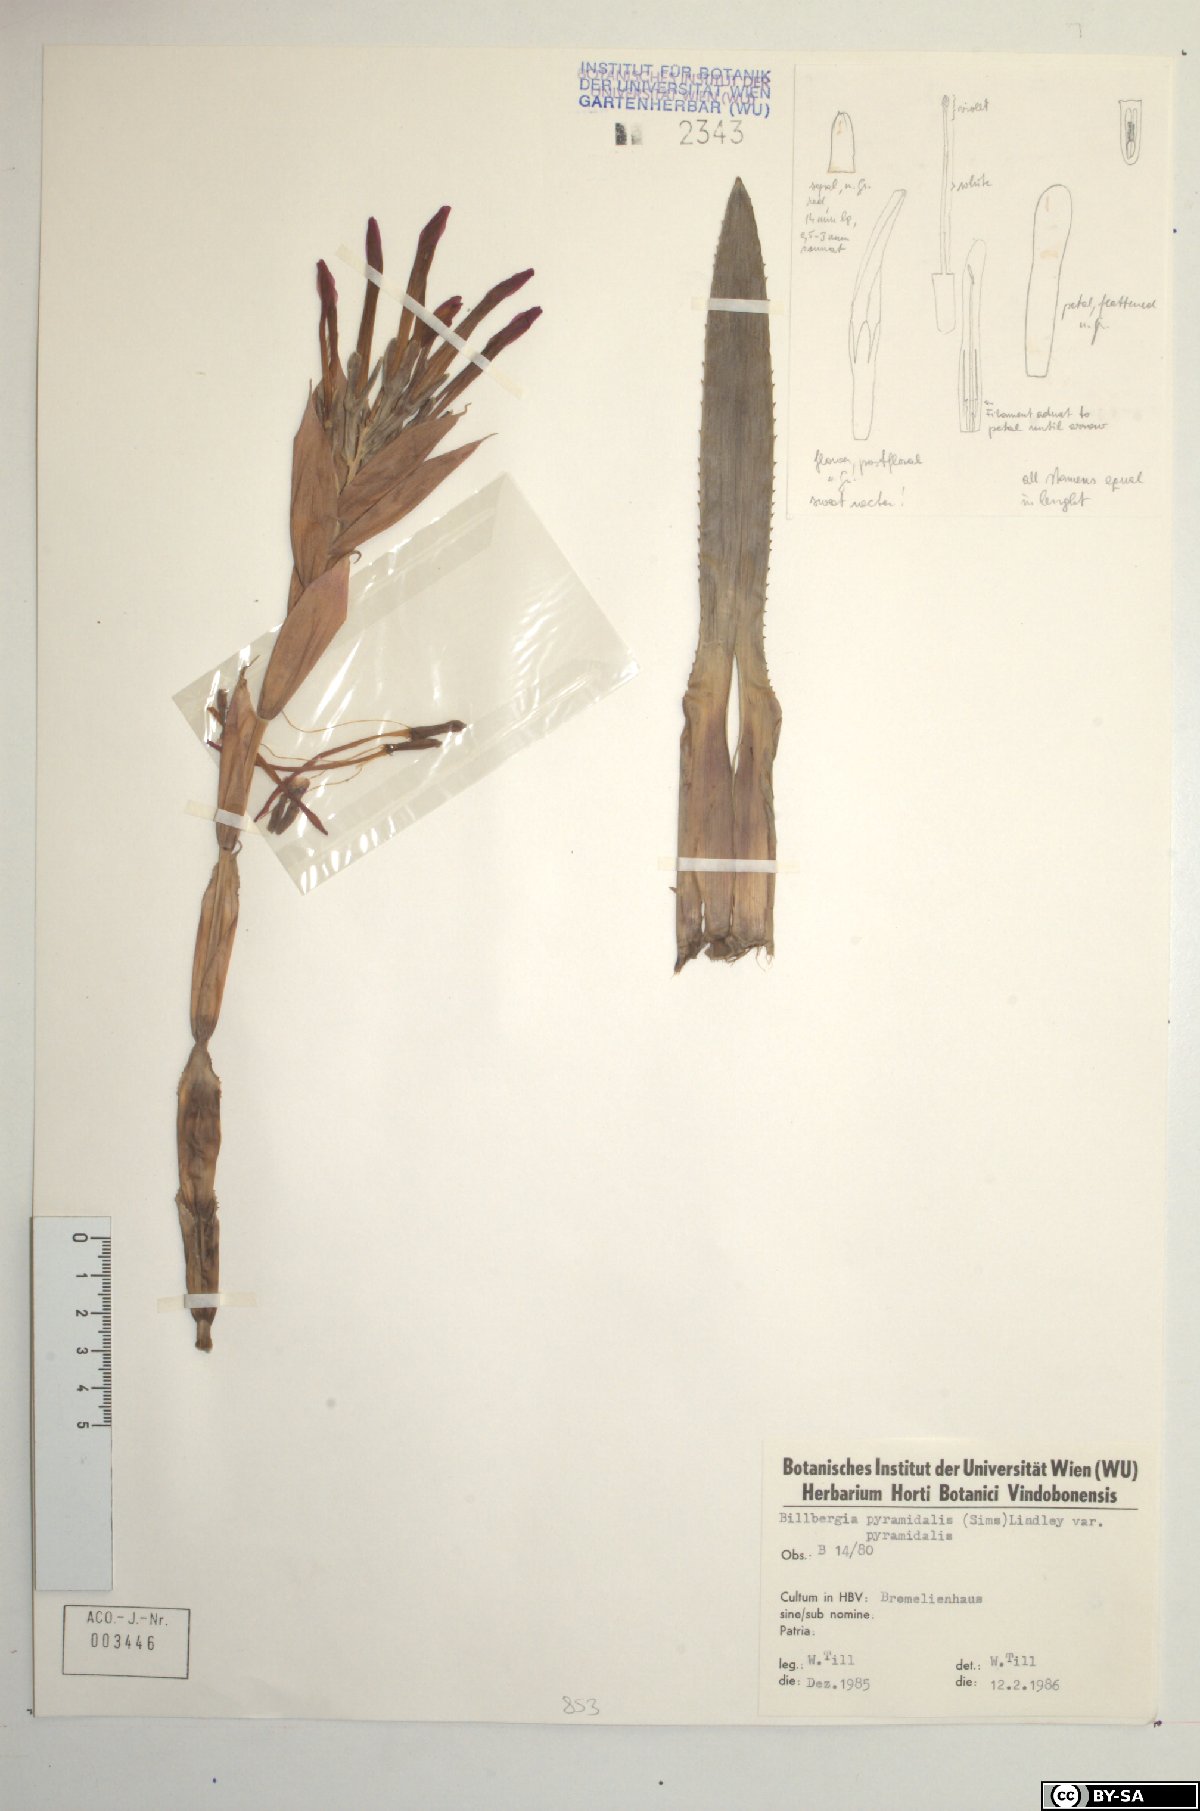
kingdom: Plantae
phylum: Tracheophyta
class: Liliopsida
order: Poales
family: Bromeliaceae
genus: Billbergia
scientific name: Billbergia pyramidalis
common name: Foolproofplant
